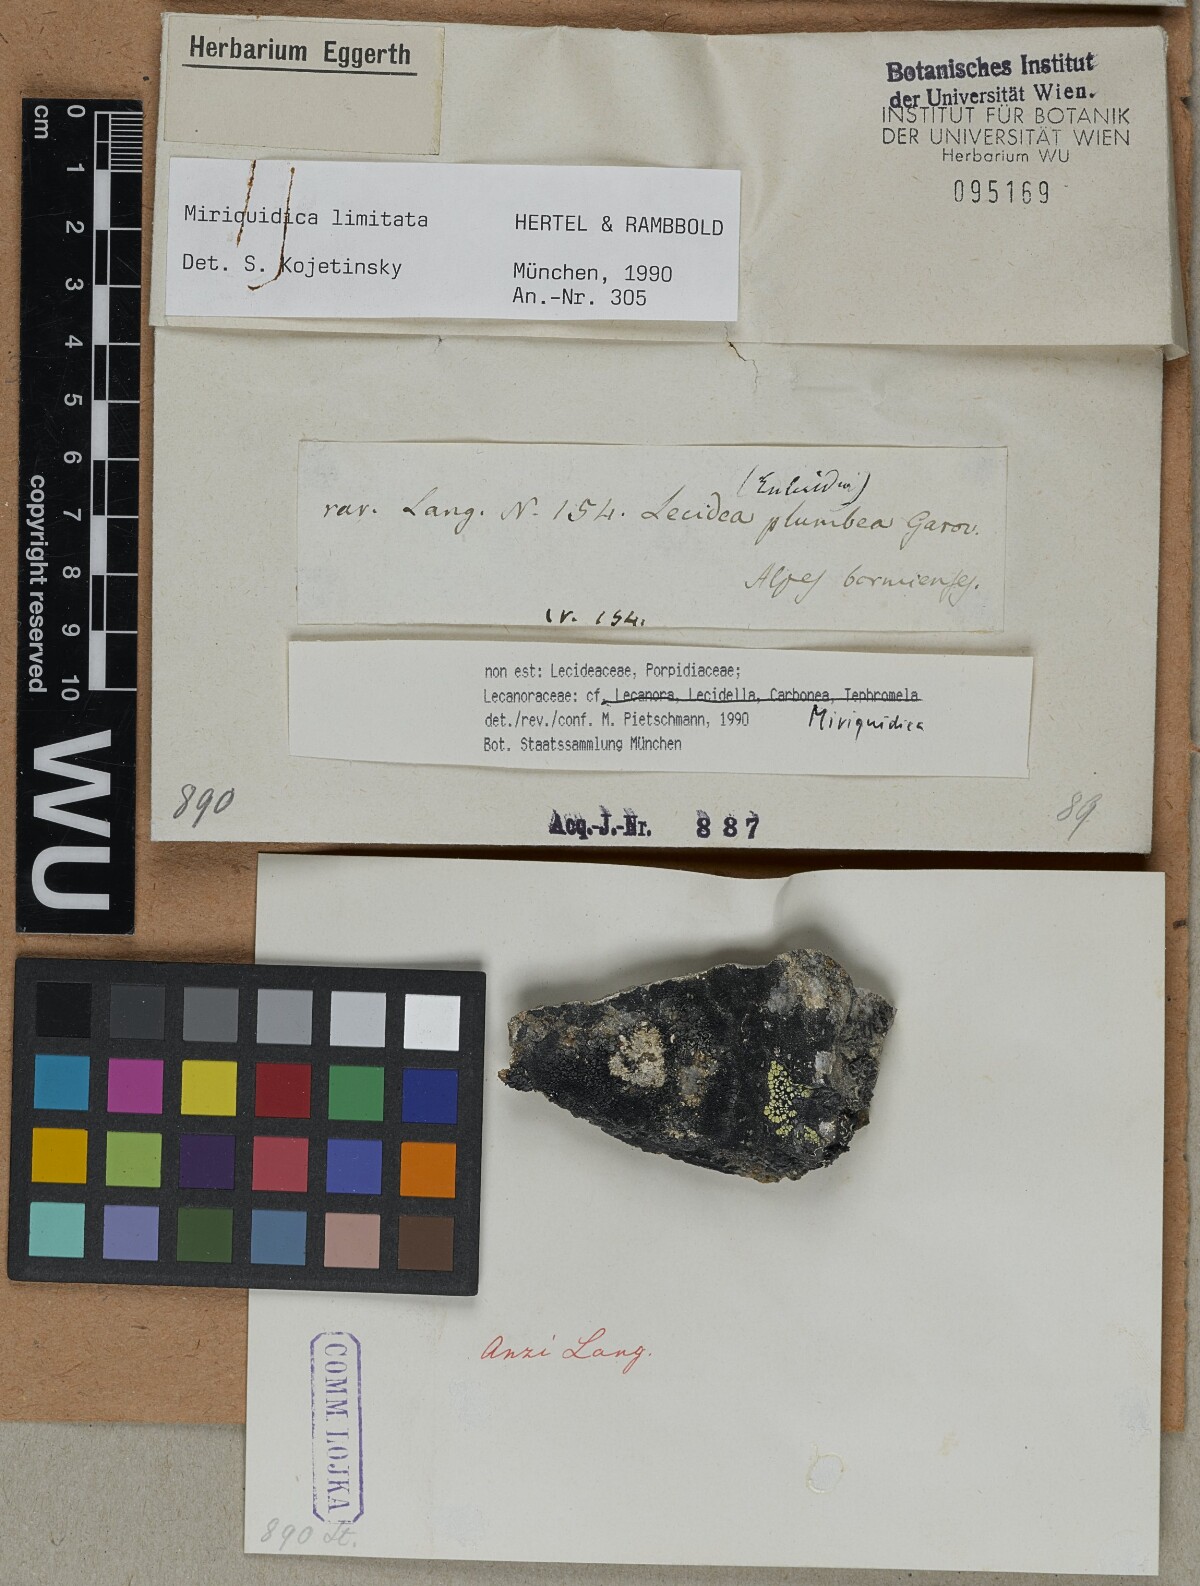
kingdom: Fungi
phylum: Ascomycota
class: Lecanoromycetes
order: Lecanorales
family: Lecanoraceae
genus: Miriquidica
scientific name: Miriquidica
